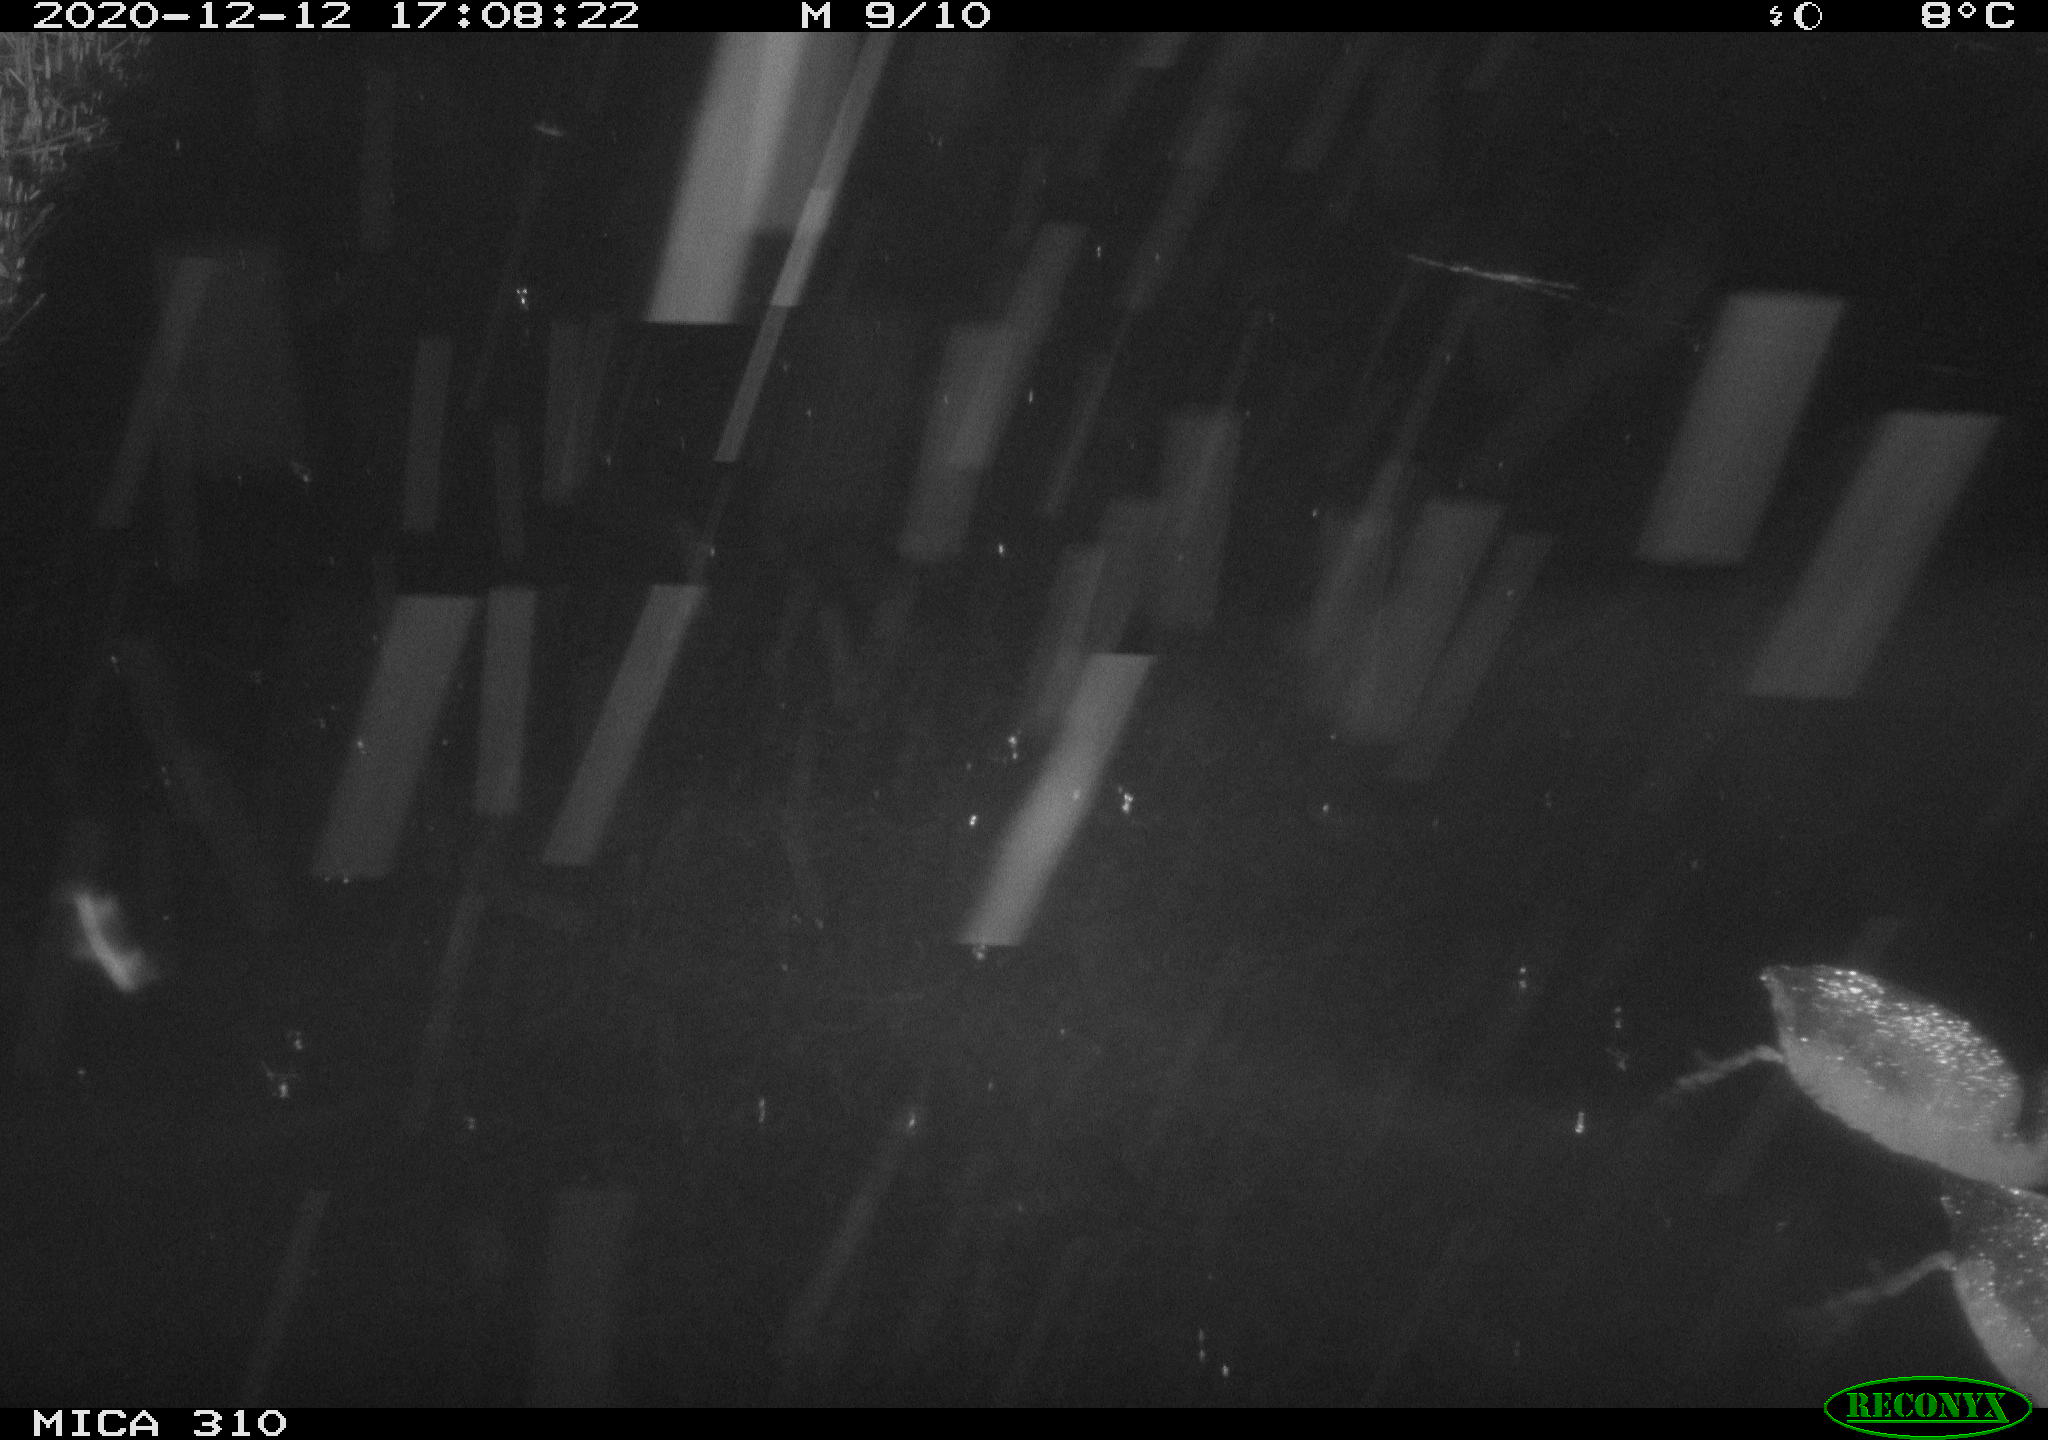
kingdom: Animalia
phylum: Chordata
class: Aves
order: Gruiformes
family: Rallidae
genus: Fulica
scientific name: Fulica atra
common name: Eurasian coot
